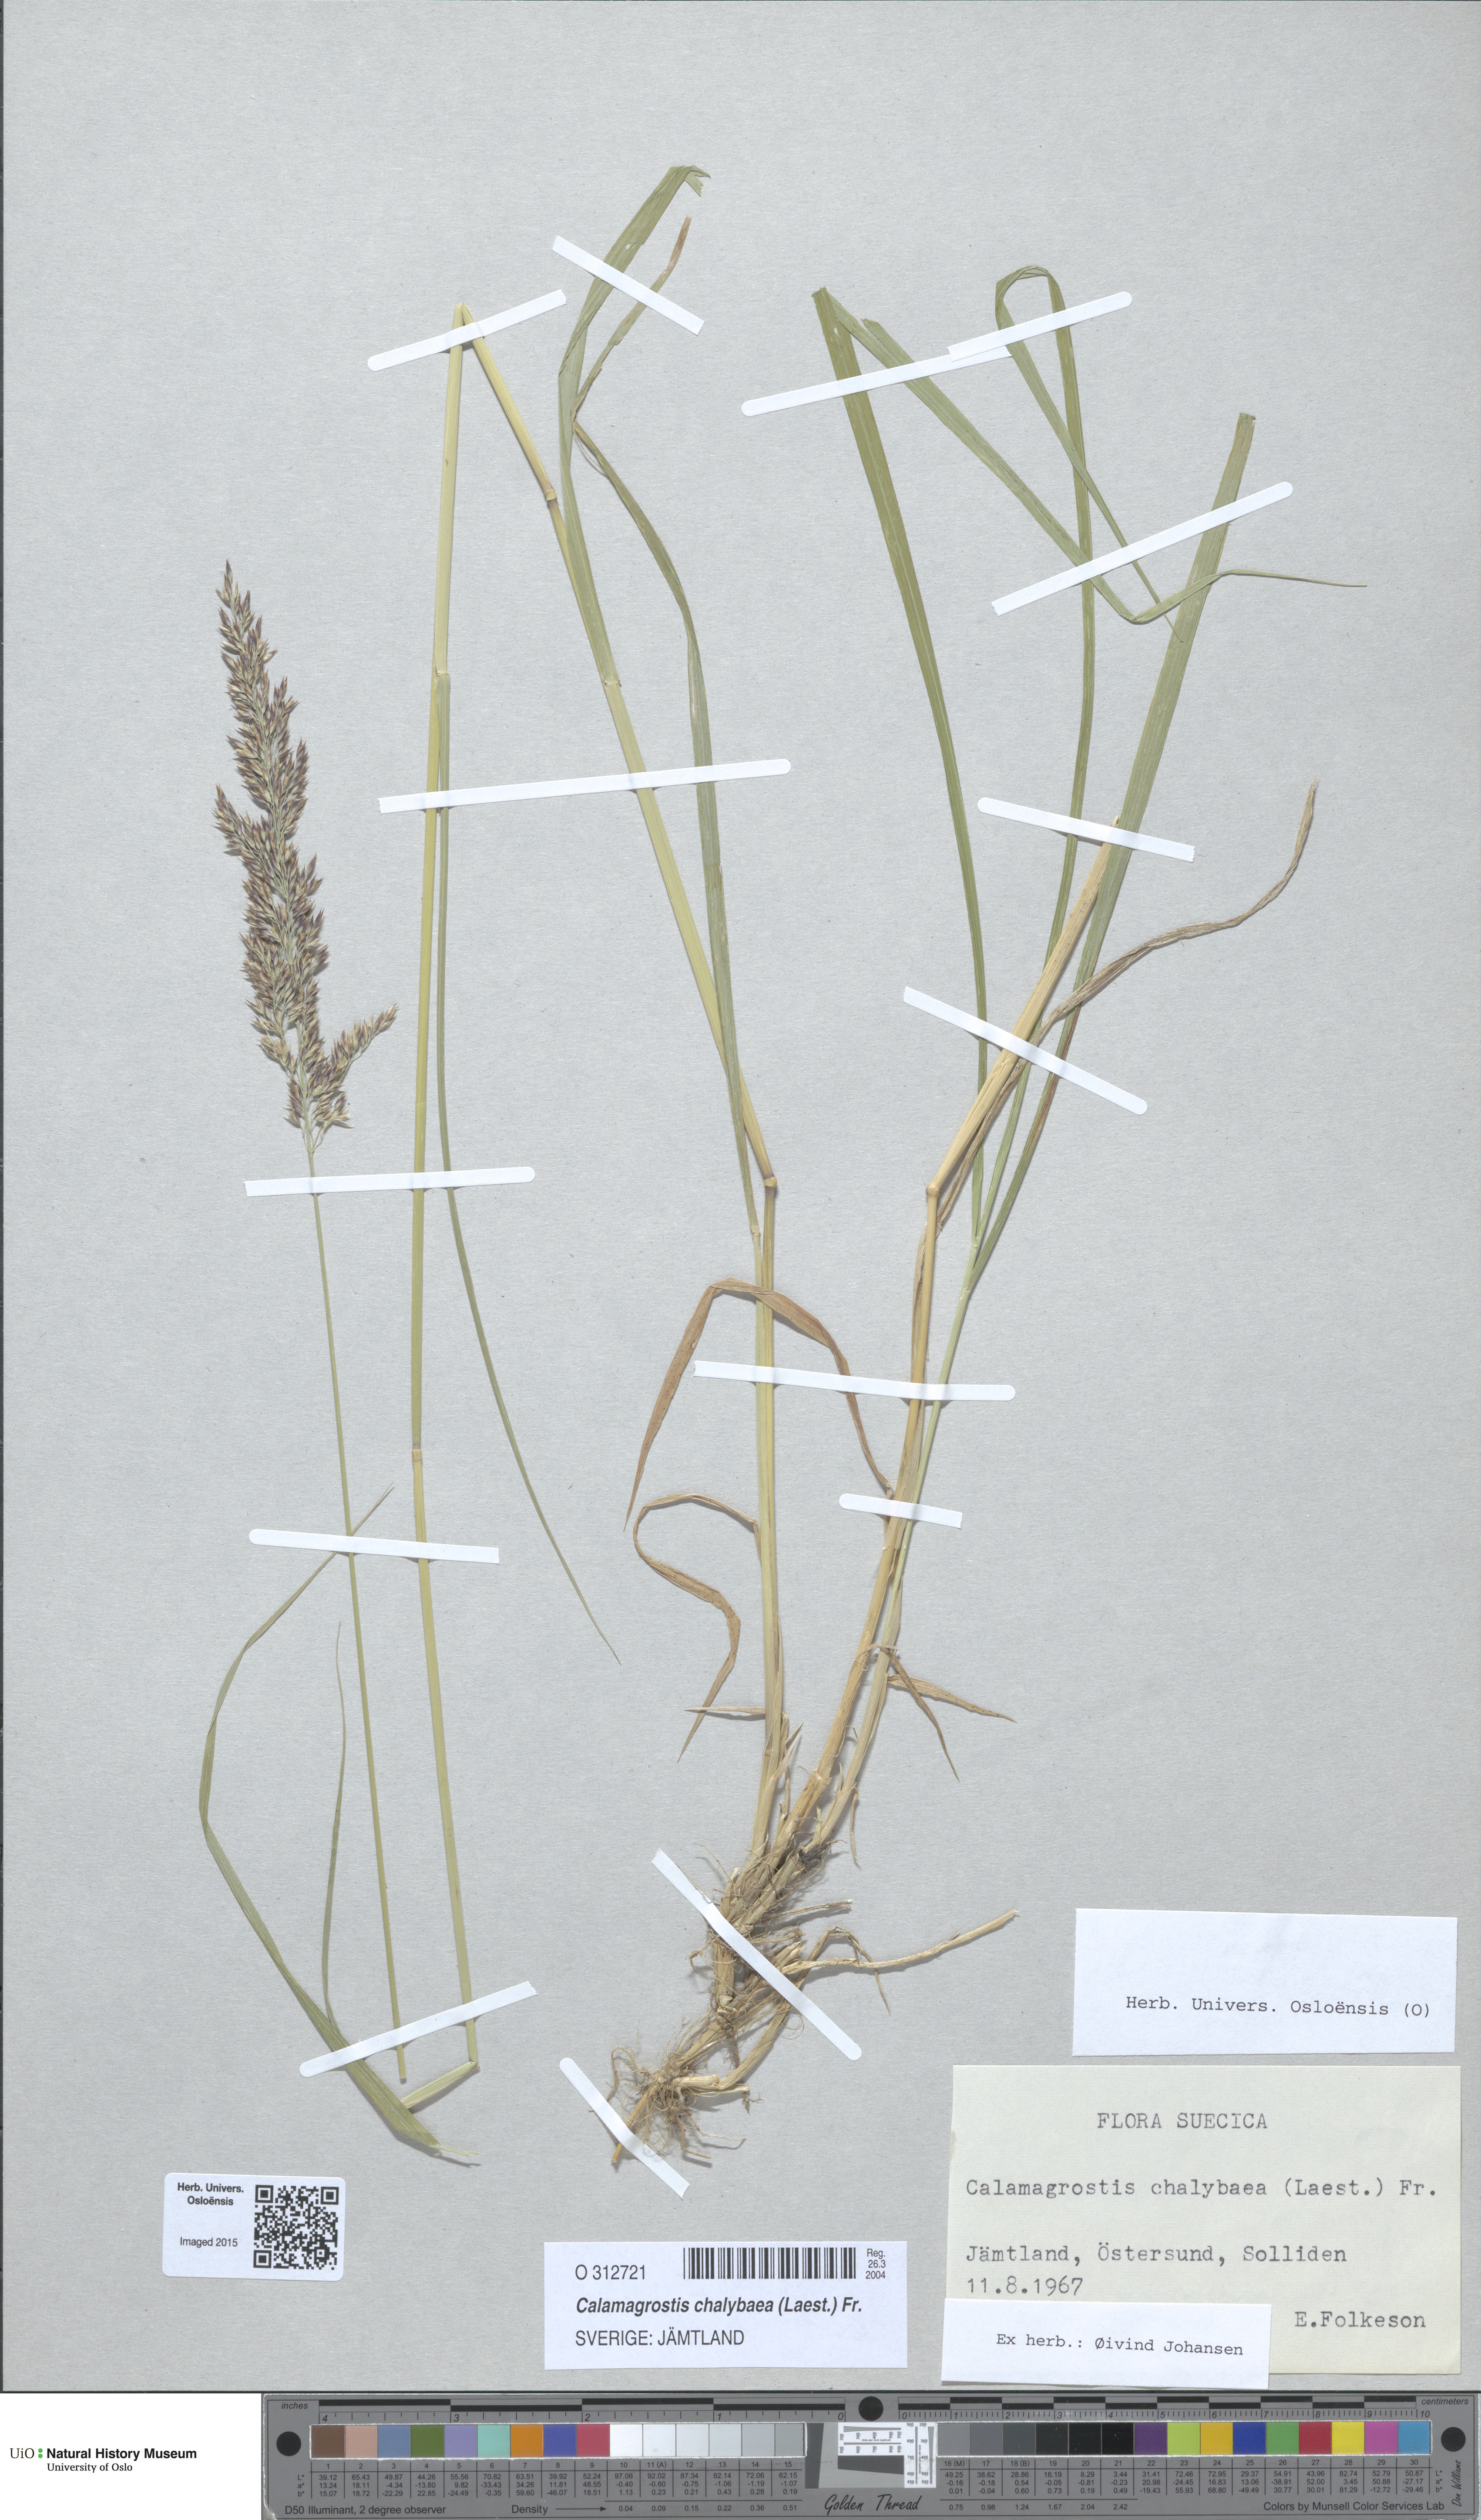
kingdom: Plantae
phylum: Tracheophyta
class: Liliopsida
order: Poales
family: Poaceae
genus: Calamagrostis
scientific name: Calamagrostis chalybaea
